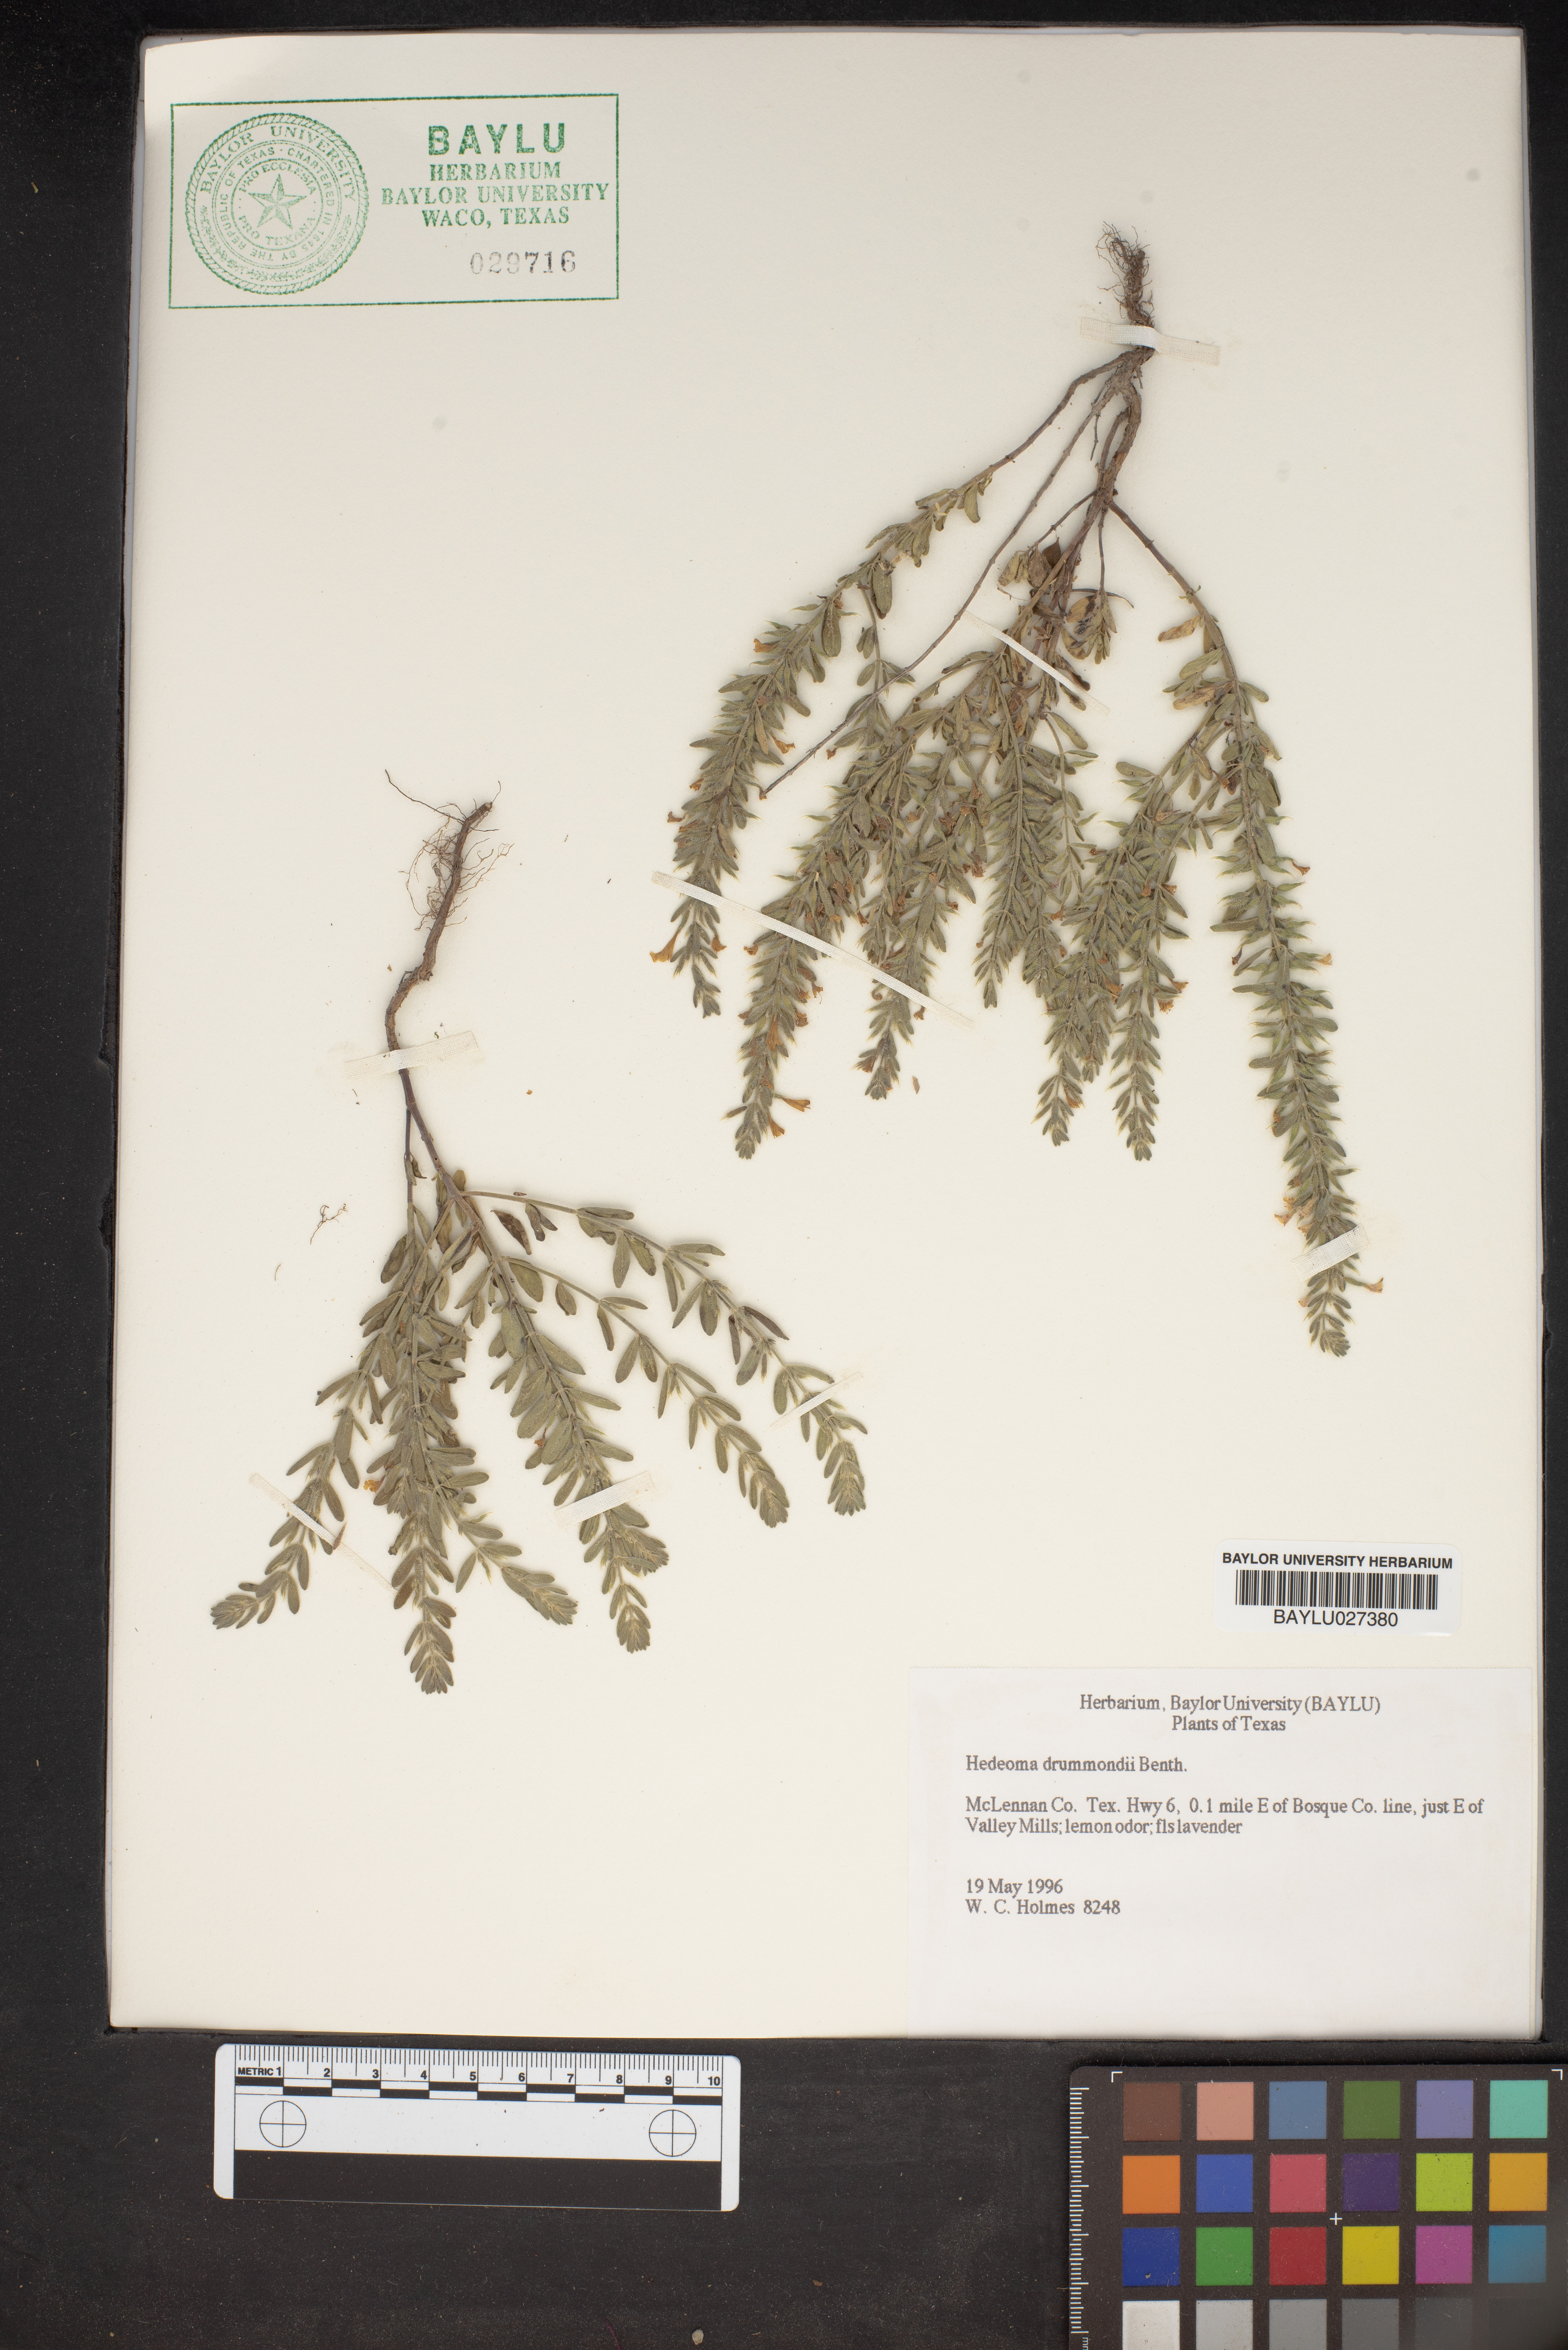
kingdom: Plantae
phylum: Tracheophyta
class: Magnoliopsida
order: Lamiales
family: Lamiaceae
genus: Hedeoma
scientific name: Hedeoma drummondii
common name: New mexico pennyroyal
